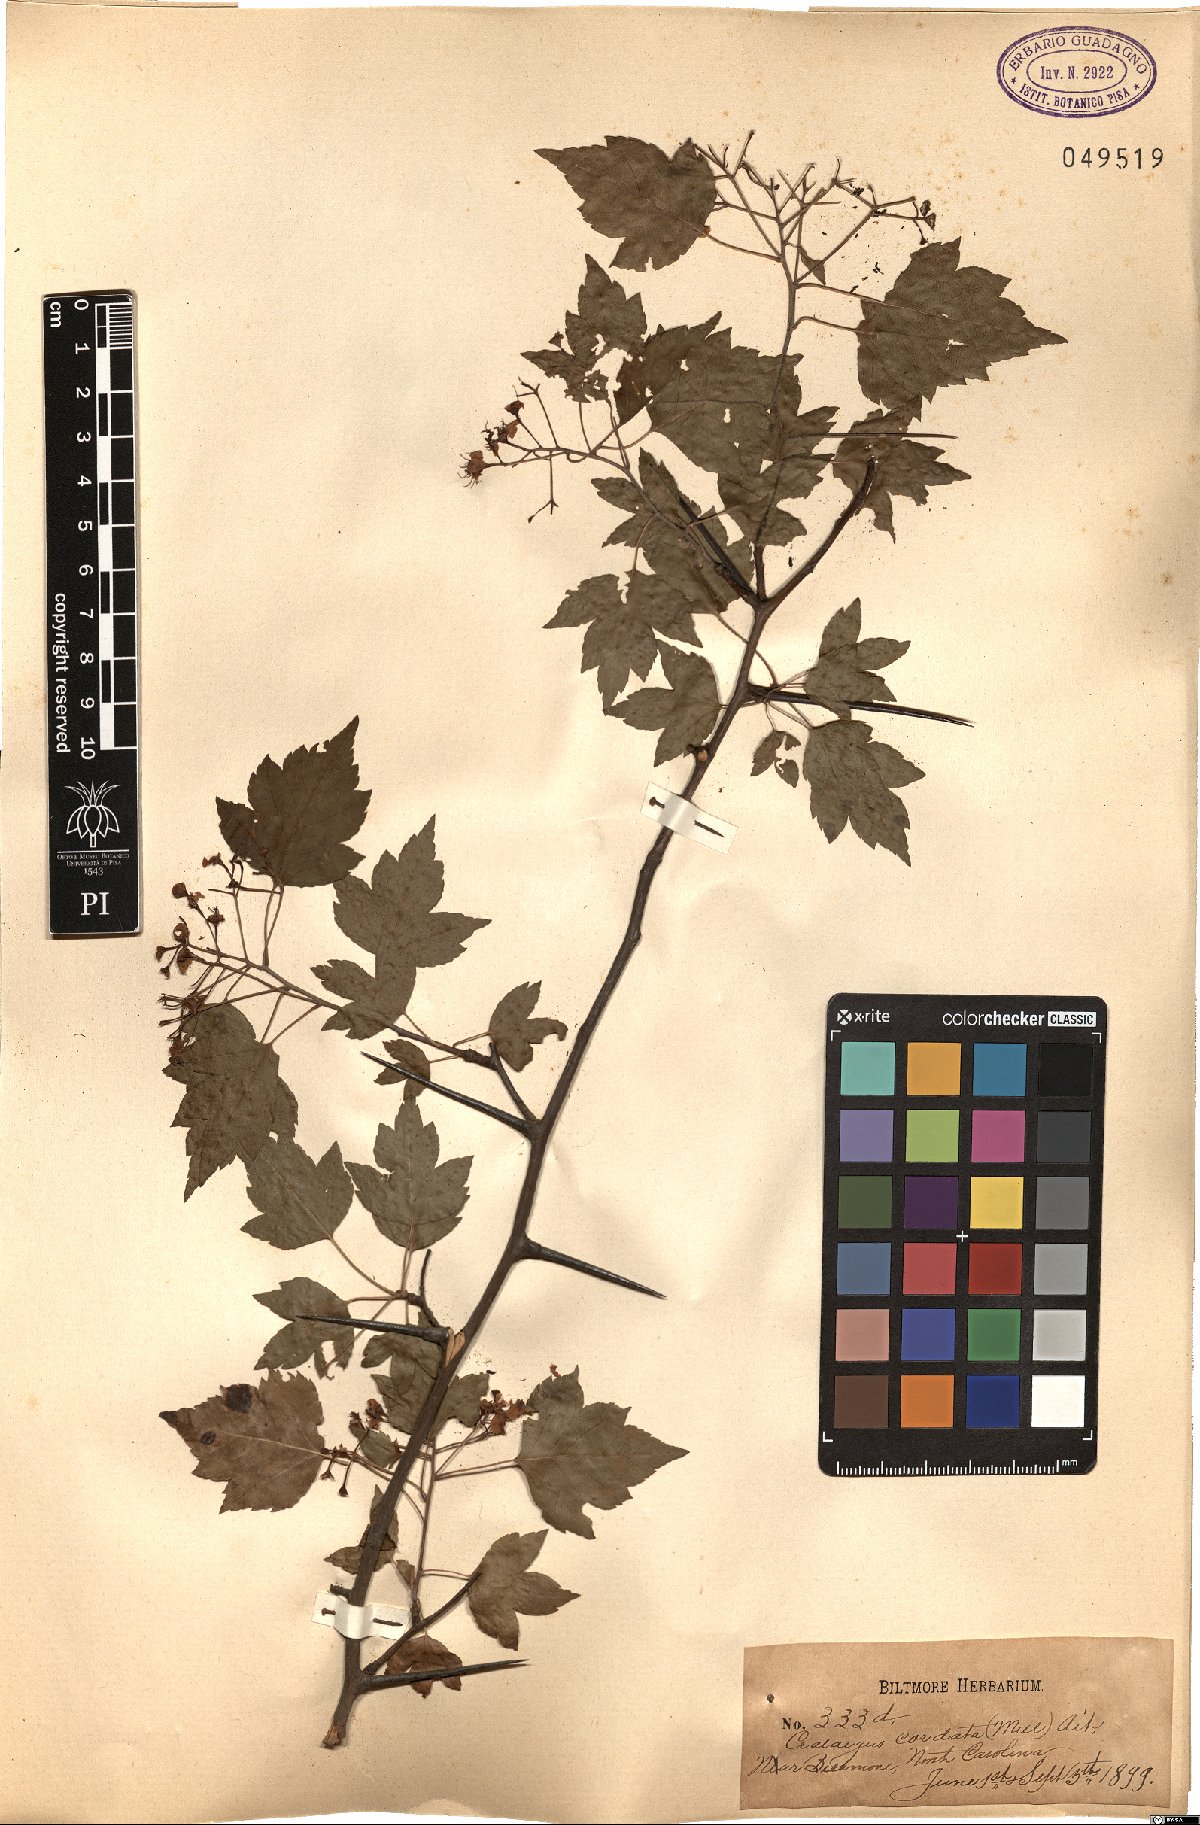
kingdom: Plantae
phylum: Tracheophyta
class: Magnoliopsida
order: Rosales
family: Rosaceae
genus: Crataegus
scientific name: Crataegus phaenopyrum
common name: Washington hawthorn
